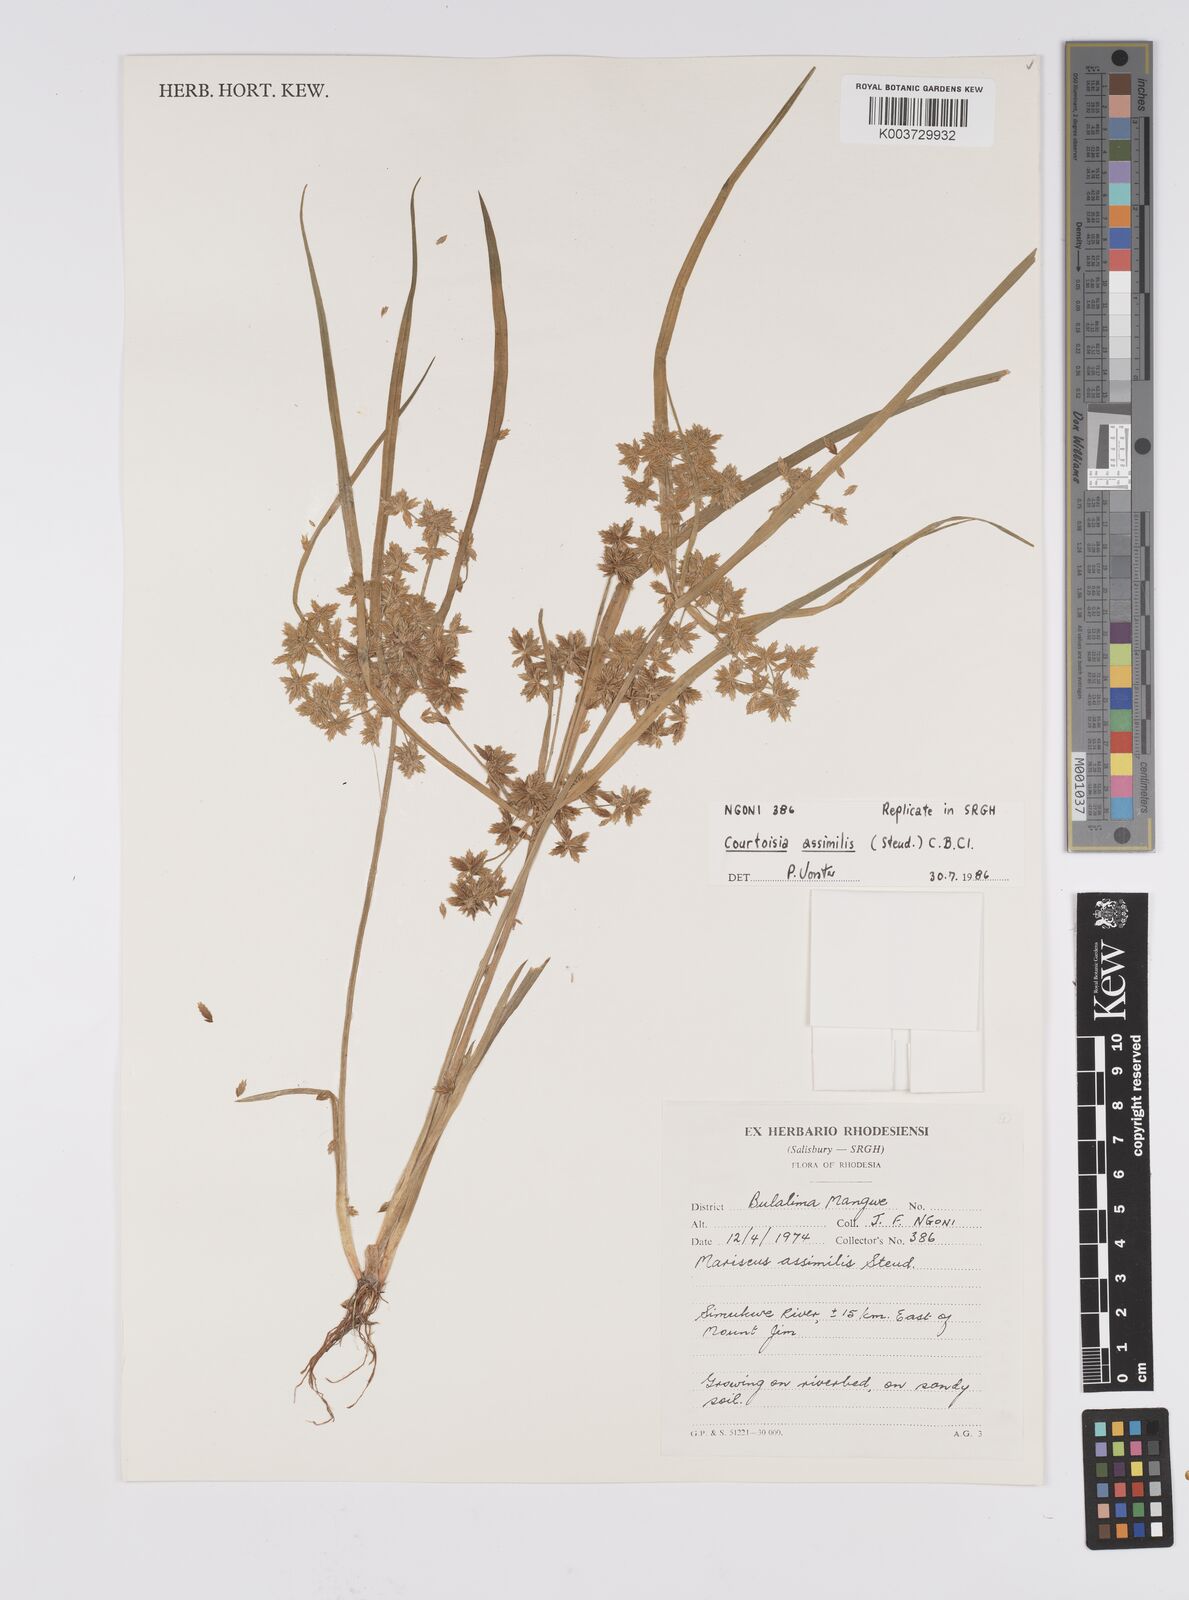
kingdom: Plantae
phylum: Tracheophyta
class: Liliopsida
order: Poales
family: Cyperaceae
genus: Cyperus
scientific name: Cyperus assimilis
